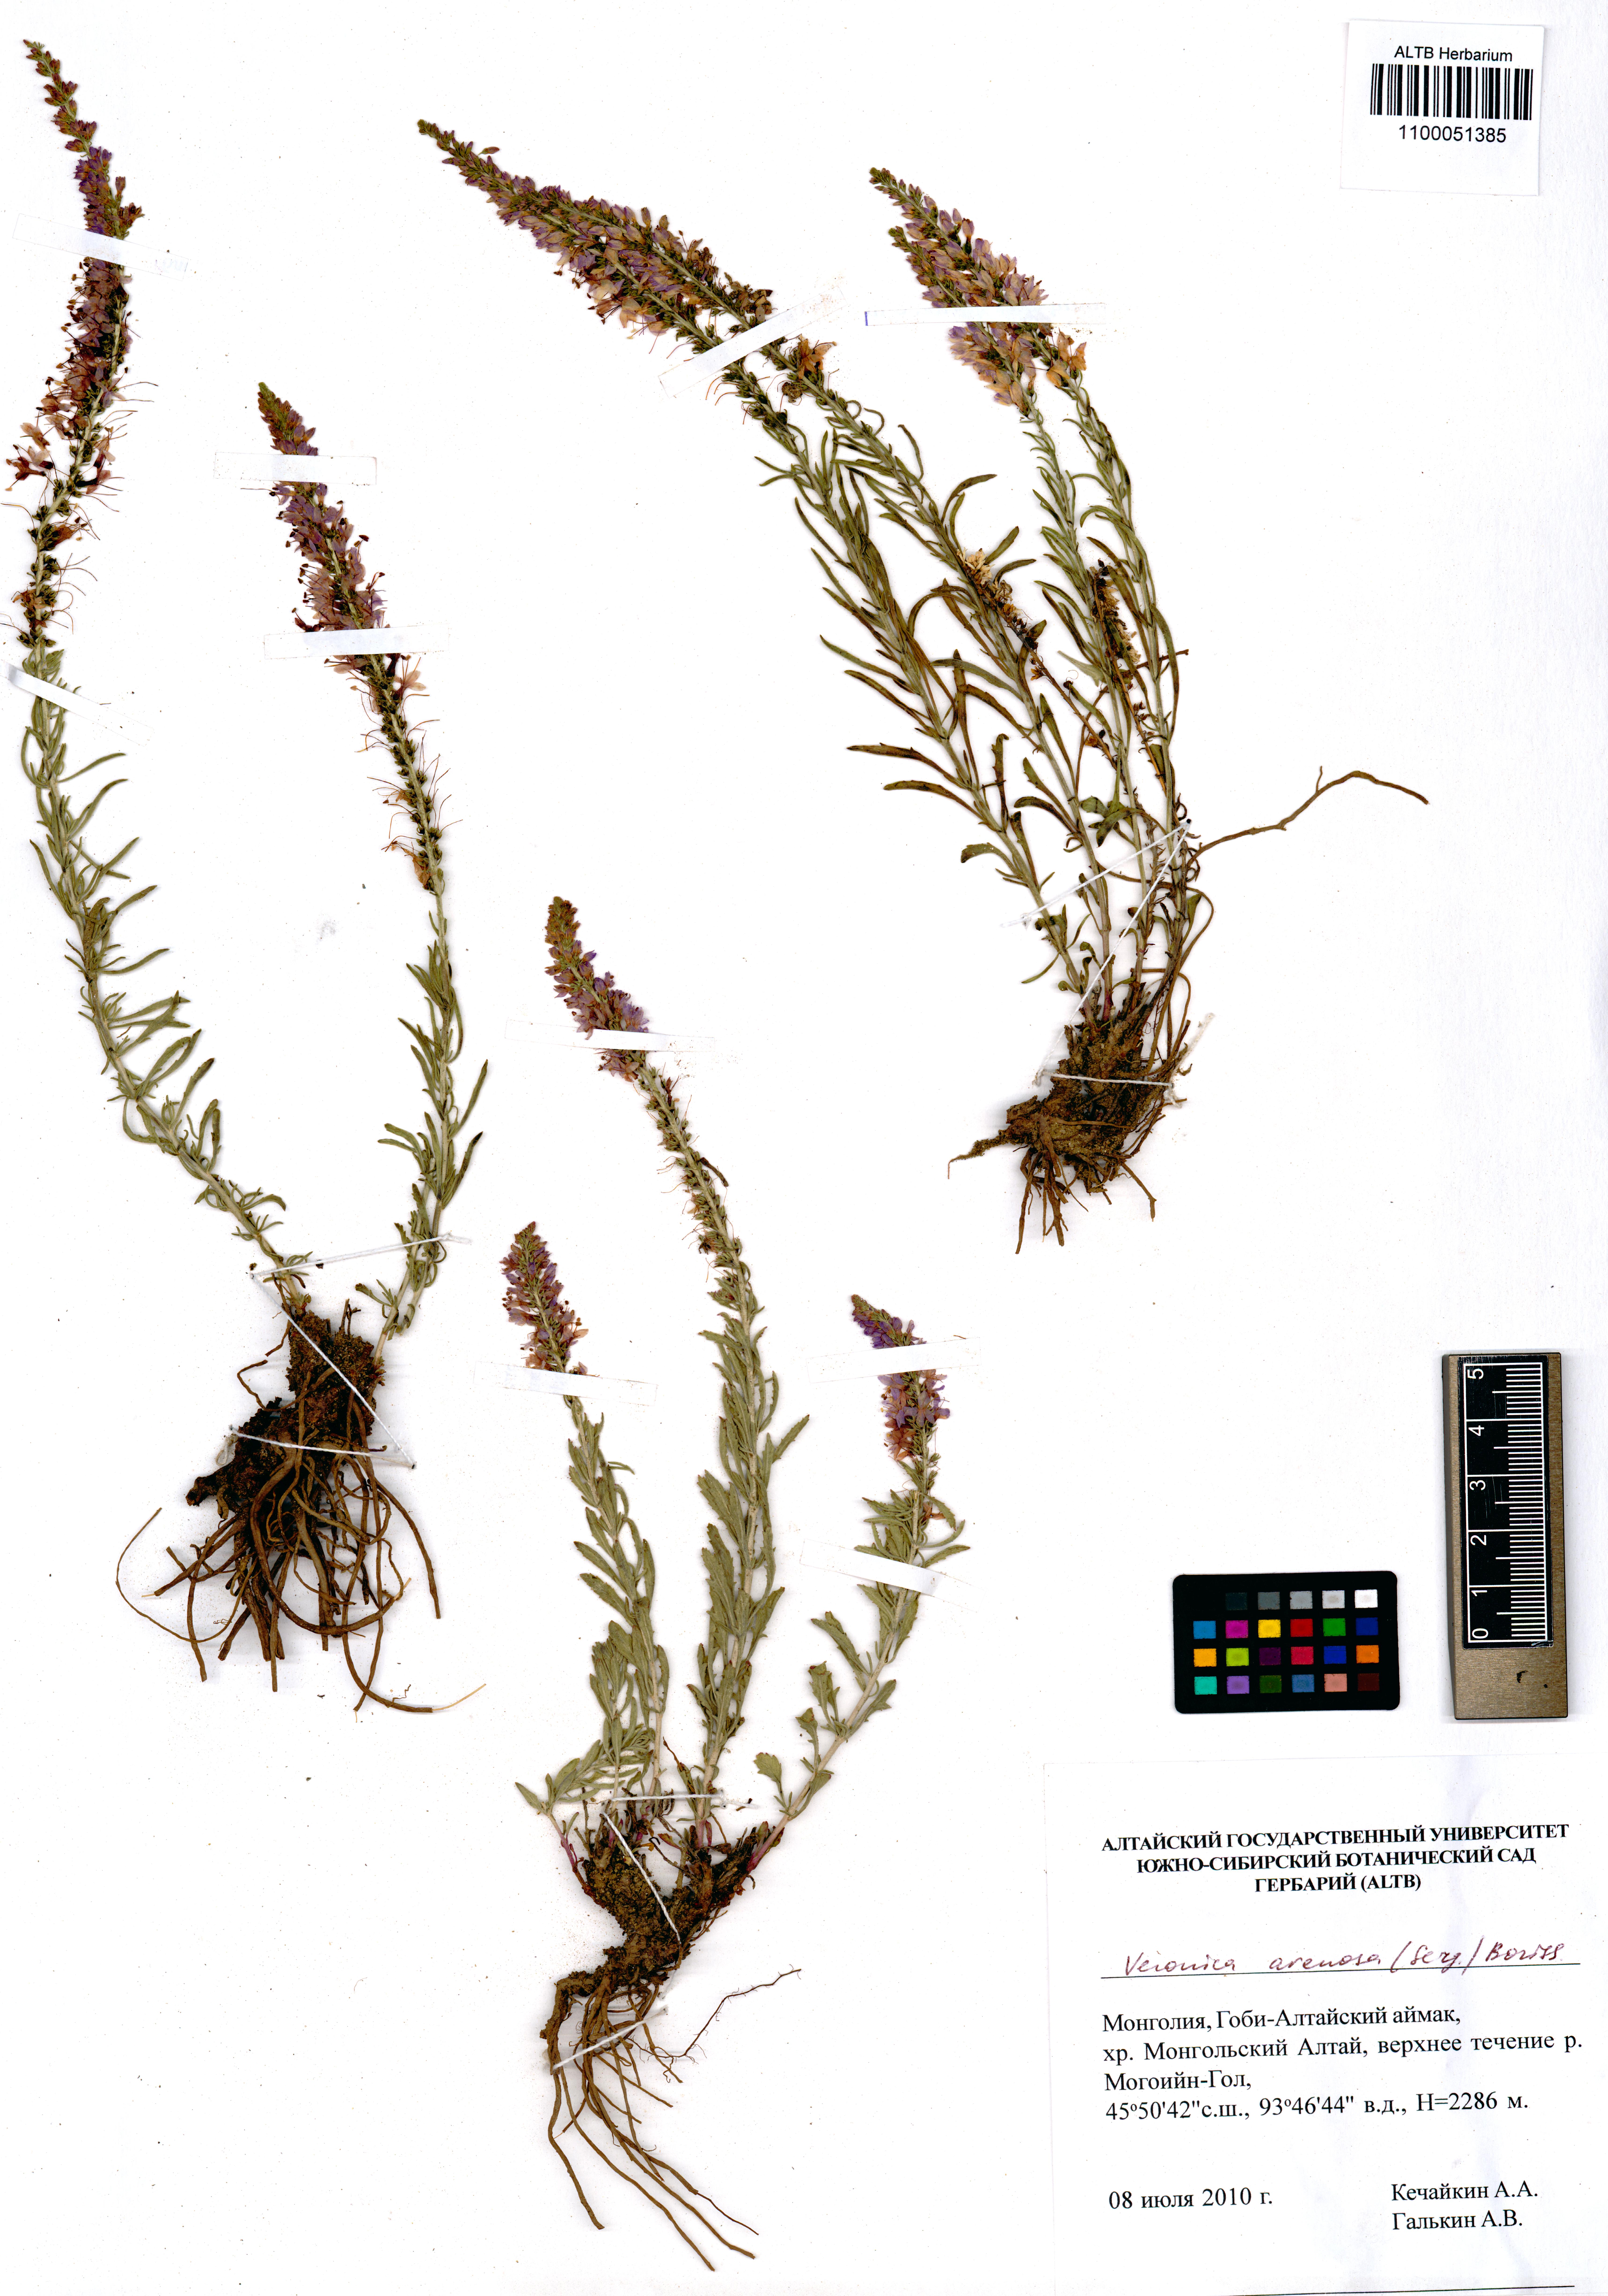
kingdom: Plantae
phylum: Tracheophyta
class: Magnoliopsida
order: Lamiales
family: Plantaginaceae
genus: Veronica
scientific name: Veronica arenosa
